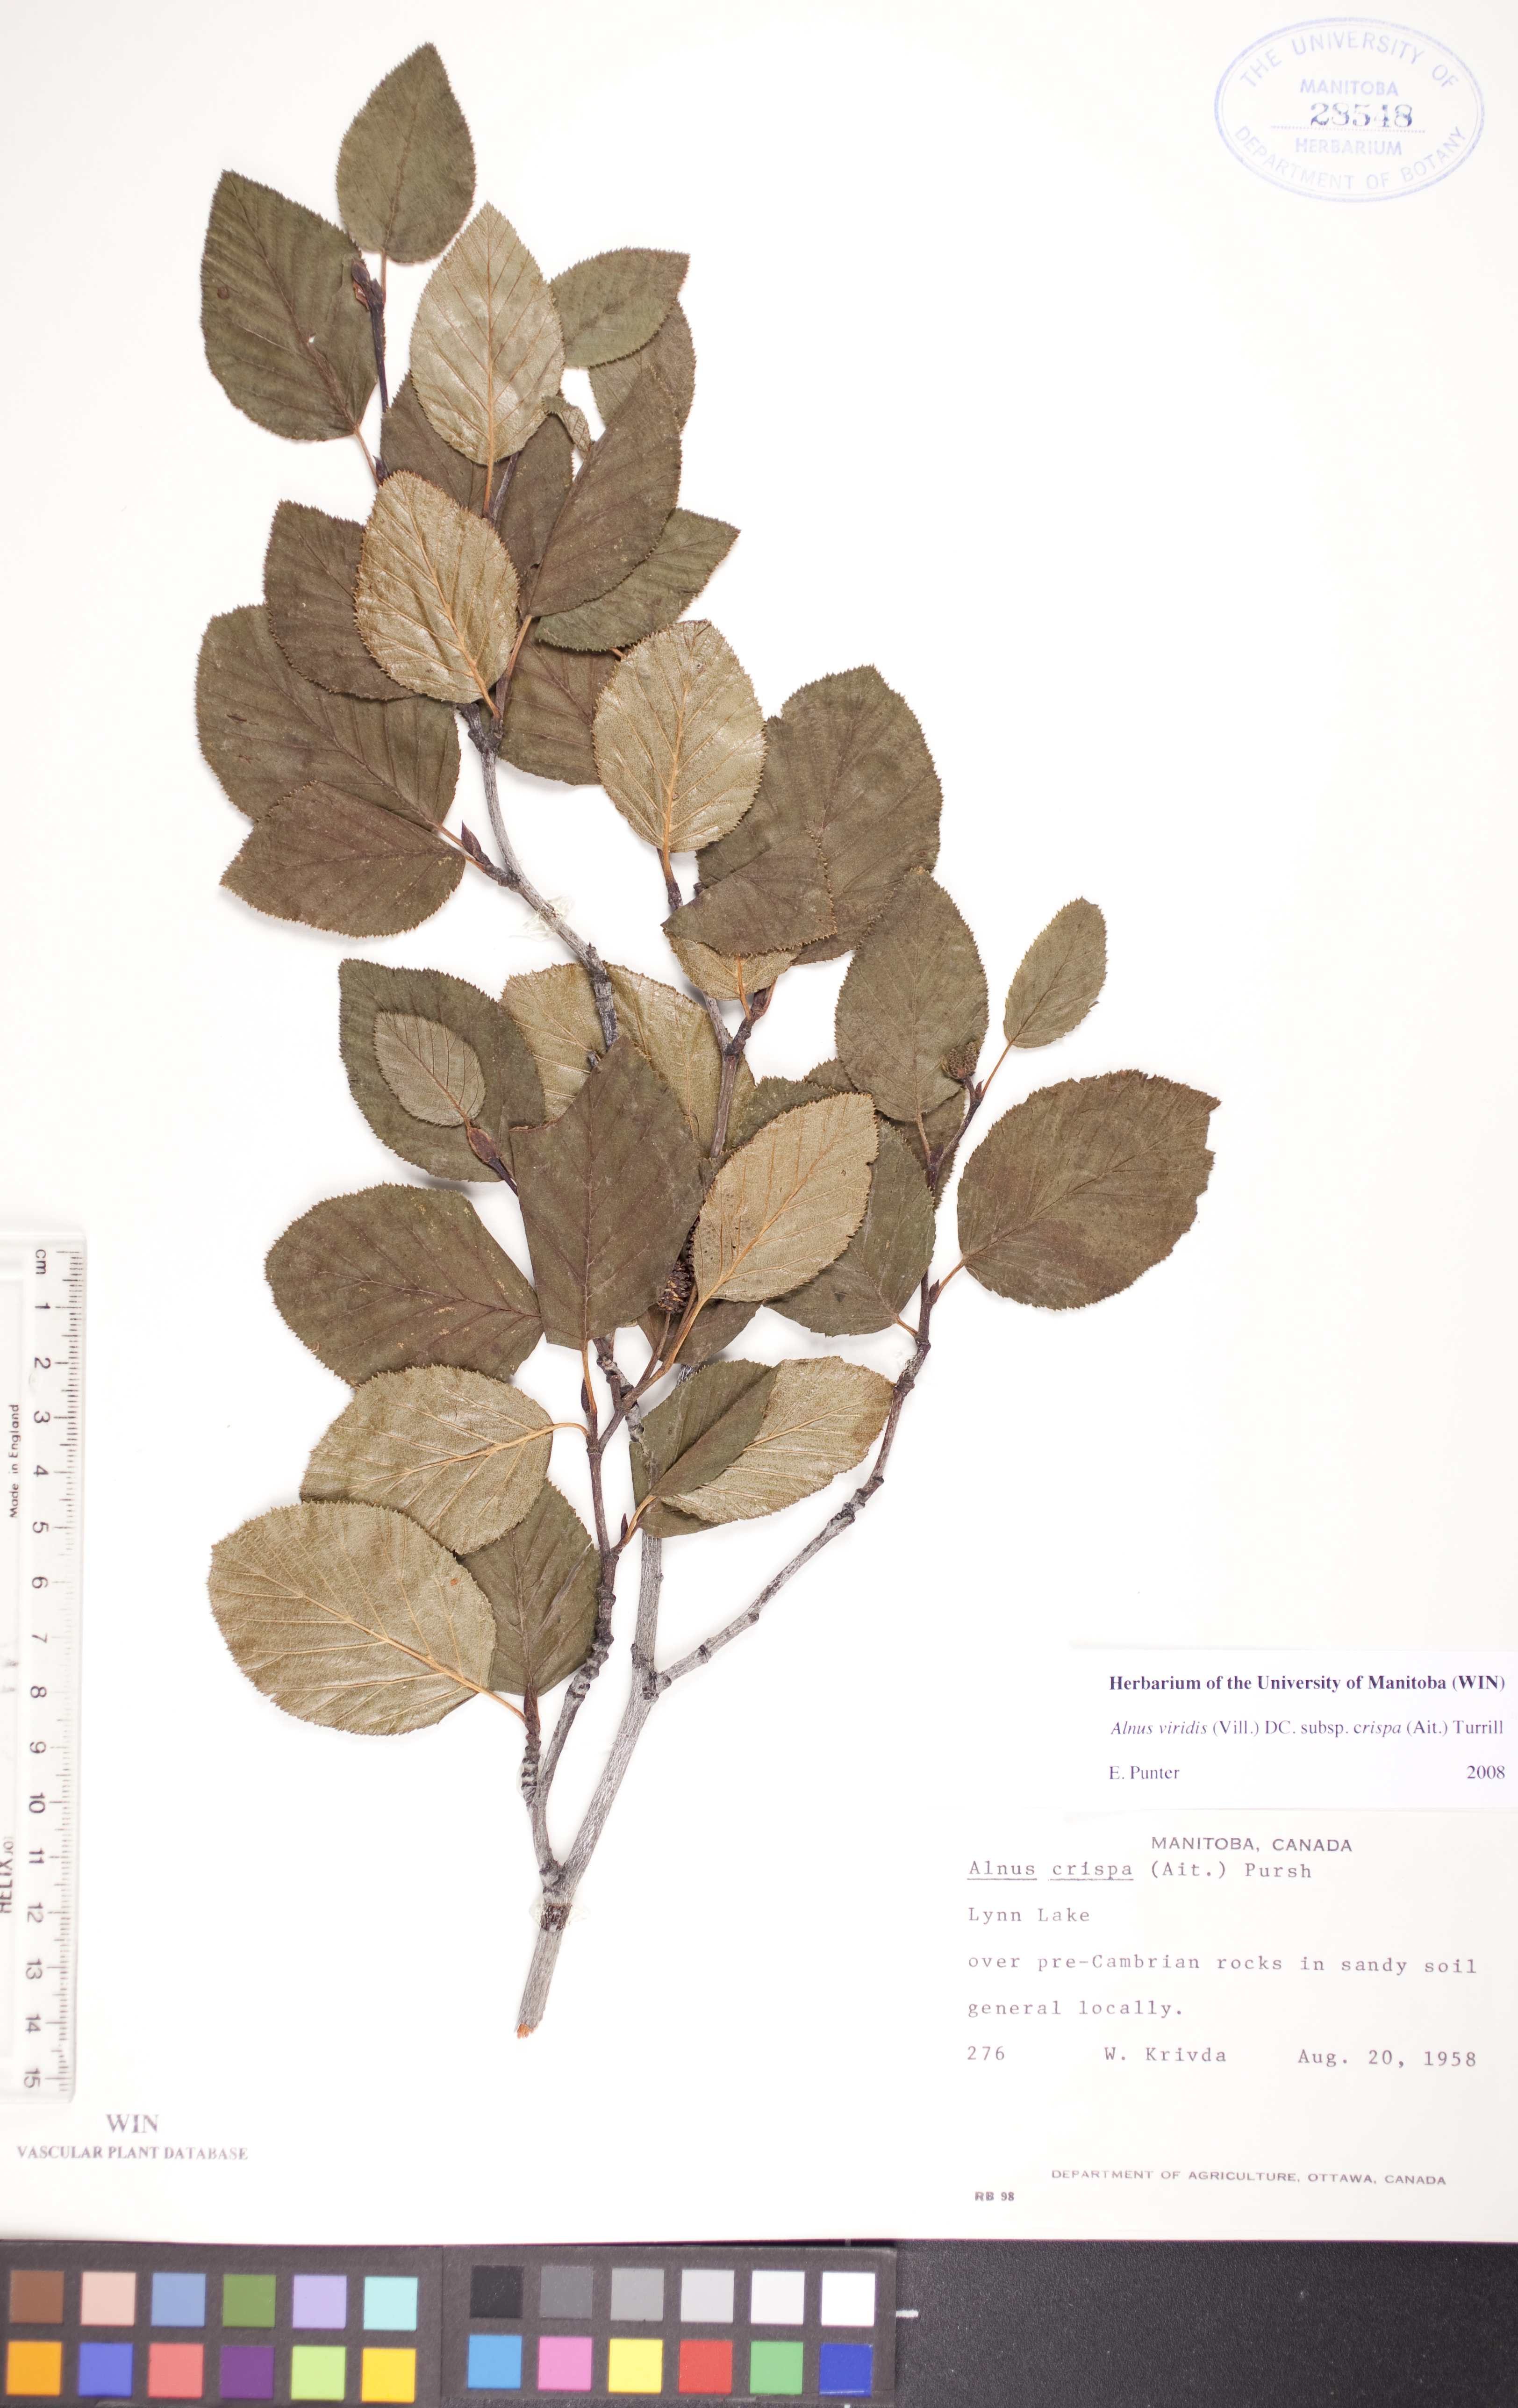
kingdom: Plantae
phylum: Tracheophyta
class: Magnoliopsida
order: Fagales
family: Betulaceae
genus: Alnus
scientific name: Alnus alnobetula
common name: Green alder
